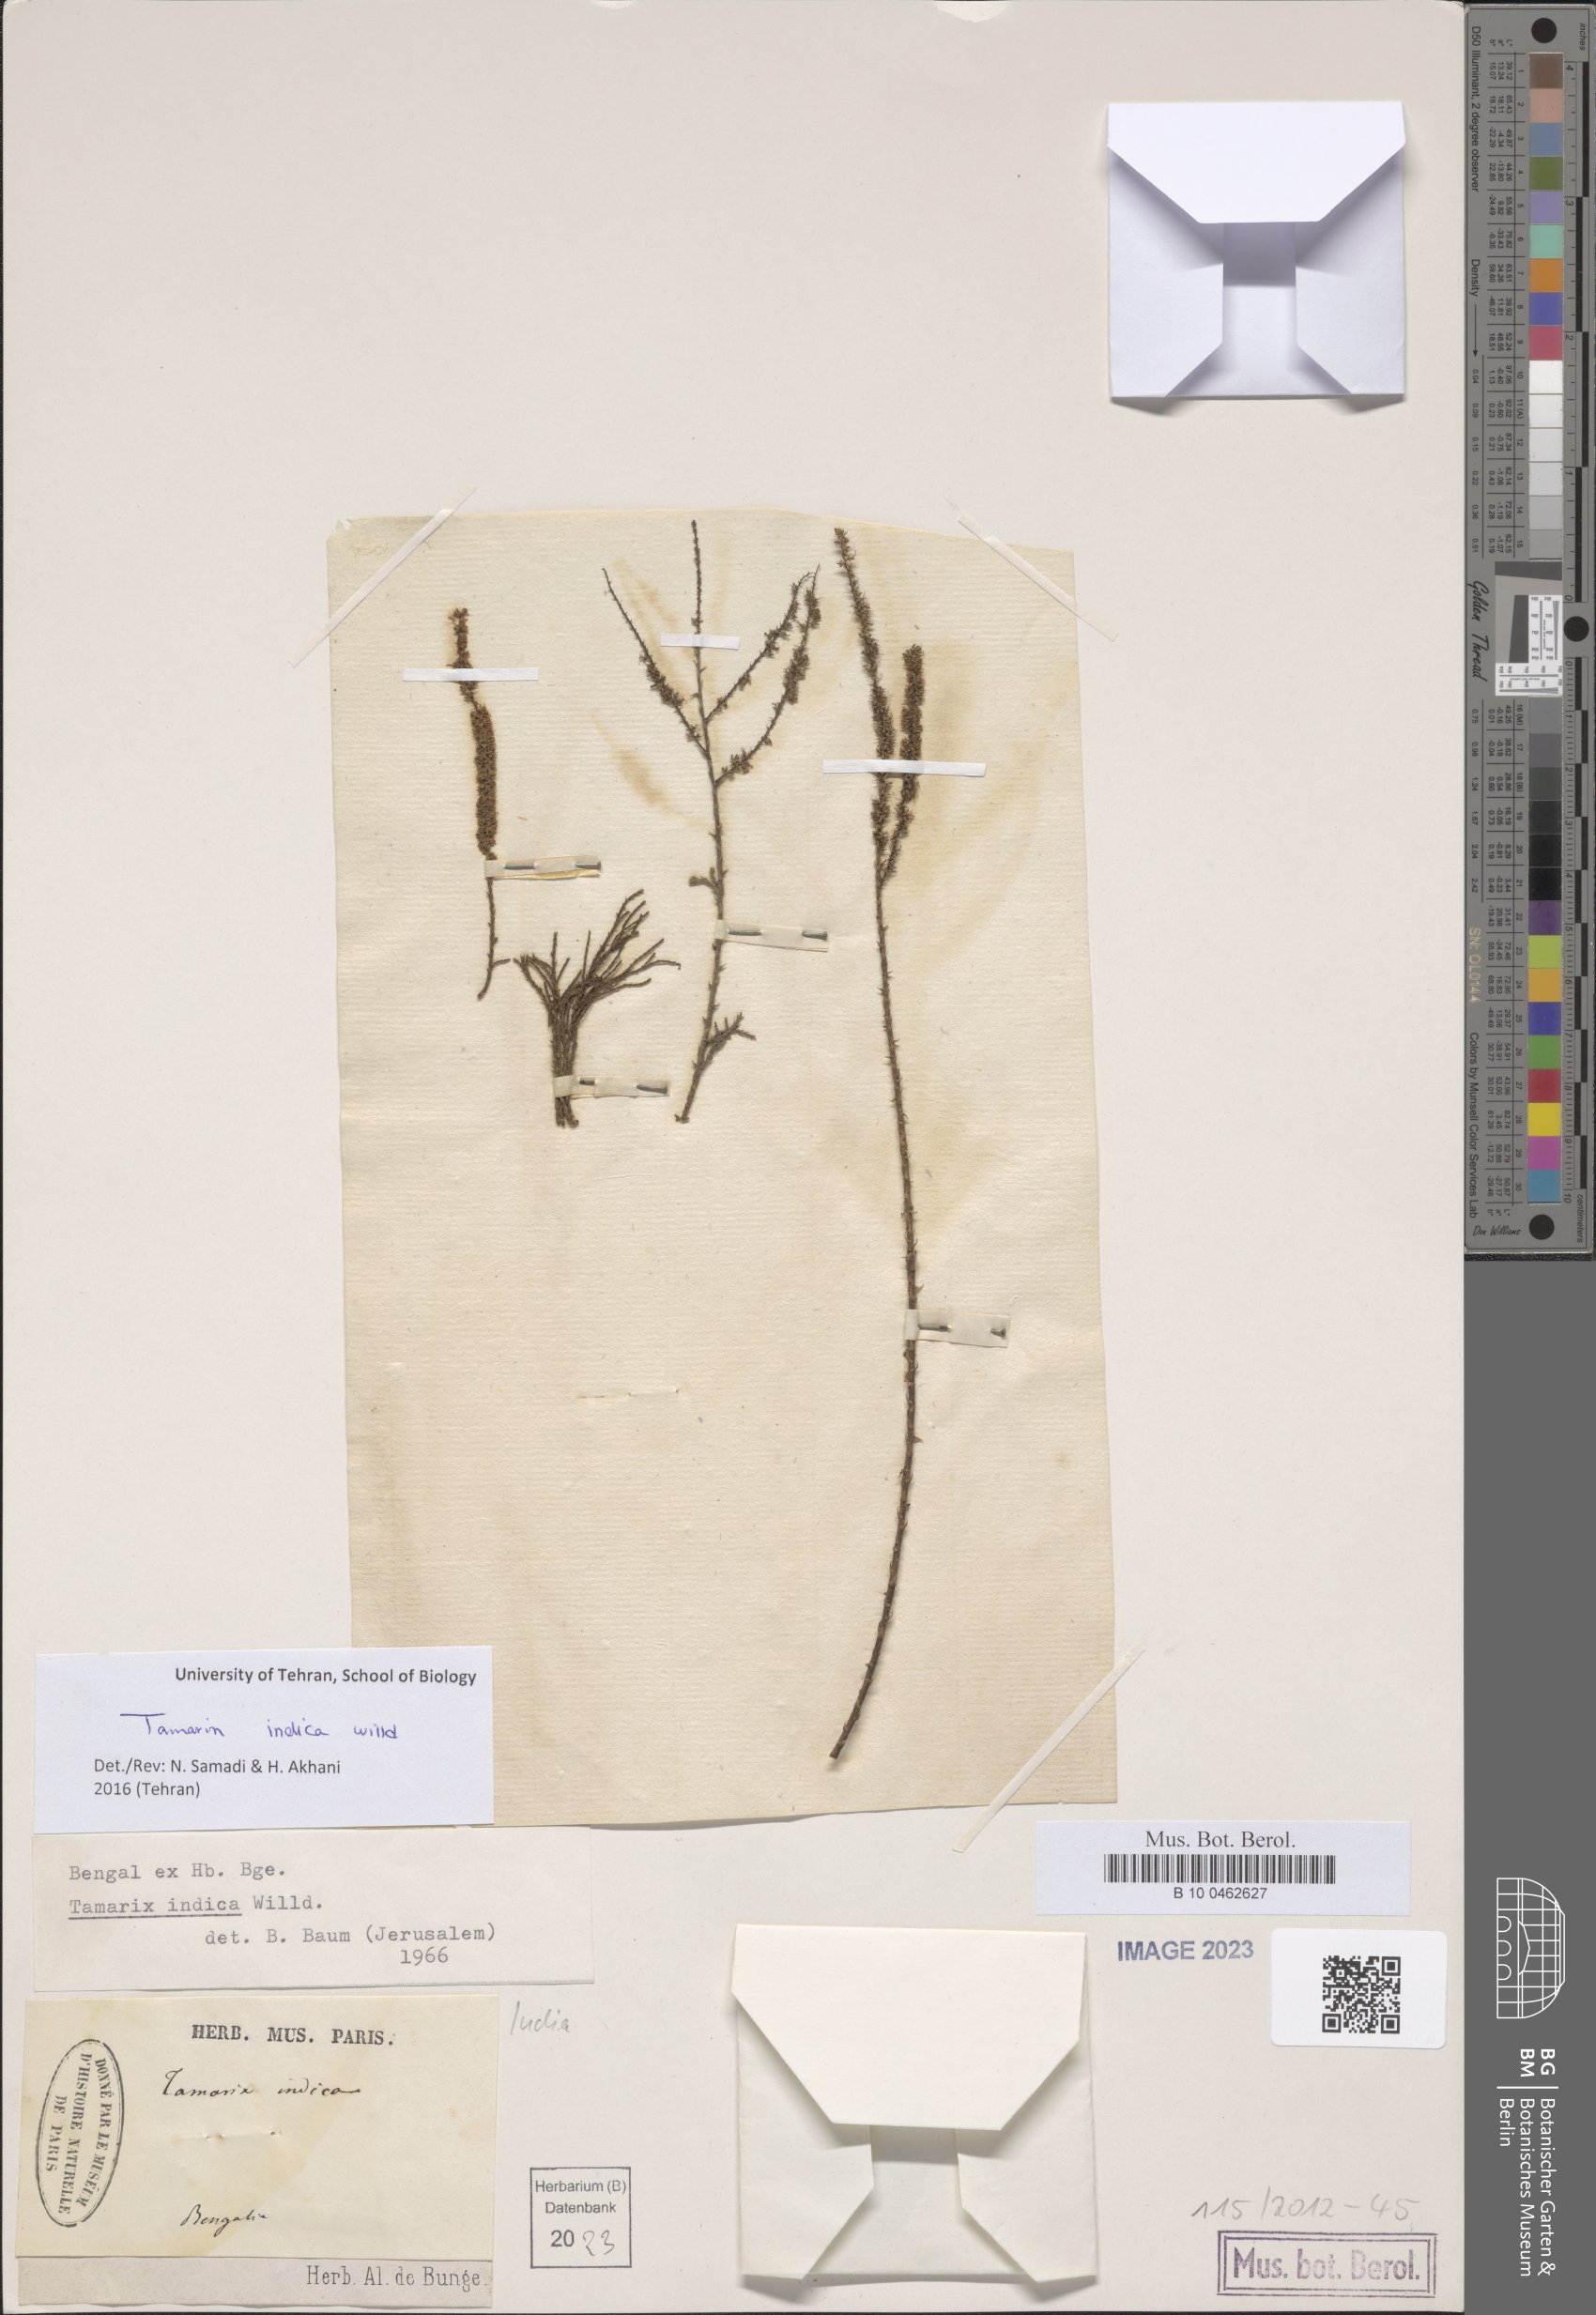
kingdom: Plantae
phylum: Tracheophyta
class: Magnoliopsida
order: Caryophyllales
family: Tamaricaceae
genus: Tamarix
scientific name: Tamarix indica
